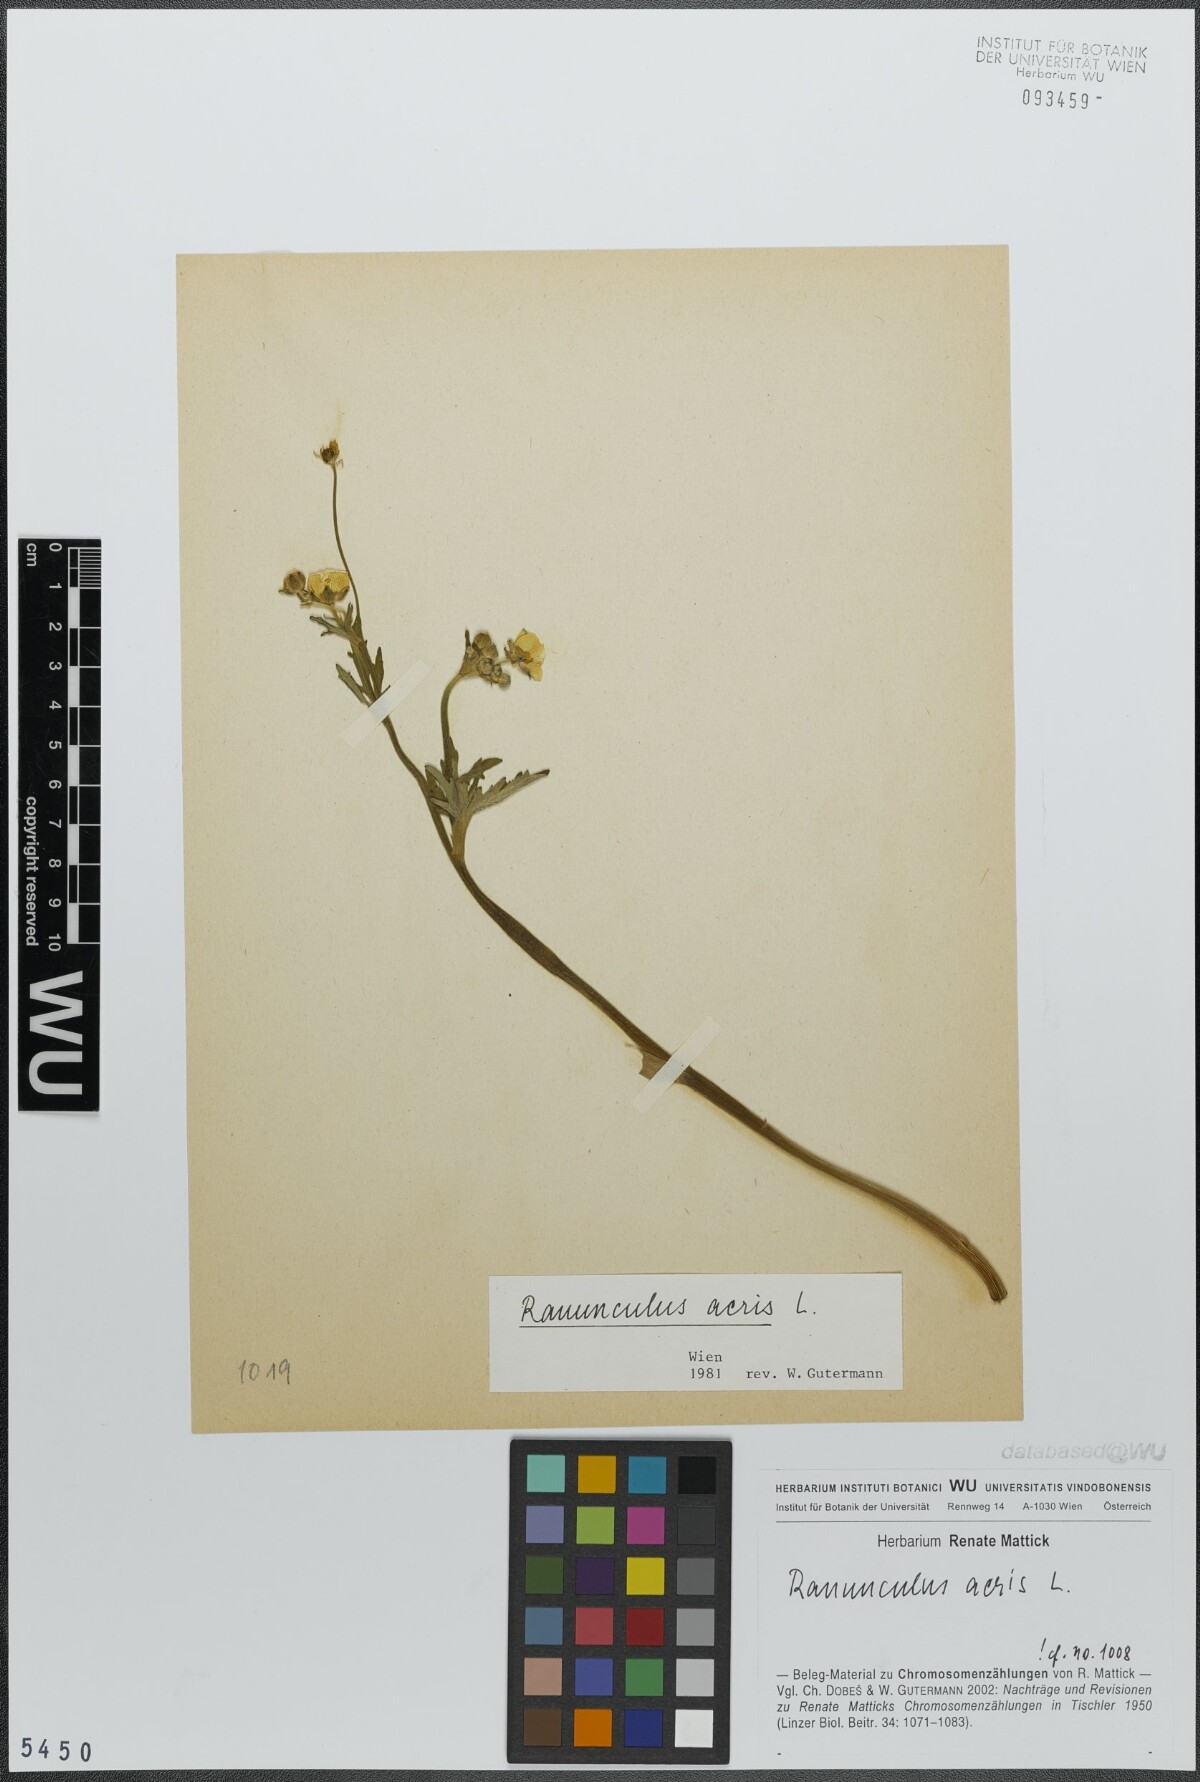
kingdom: Plantae
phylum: Tracheophyta
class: Magnoliopsida
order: Ranunculales
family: Ranunculaceae
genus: Ranunculus
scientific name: Ranunculus acris
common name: Meadow buttercup
